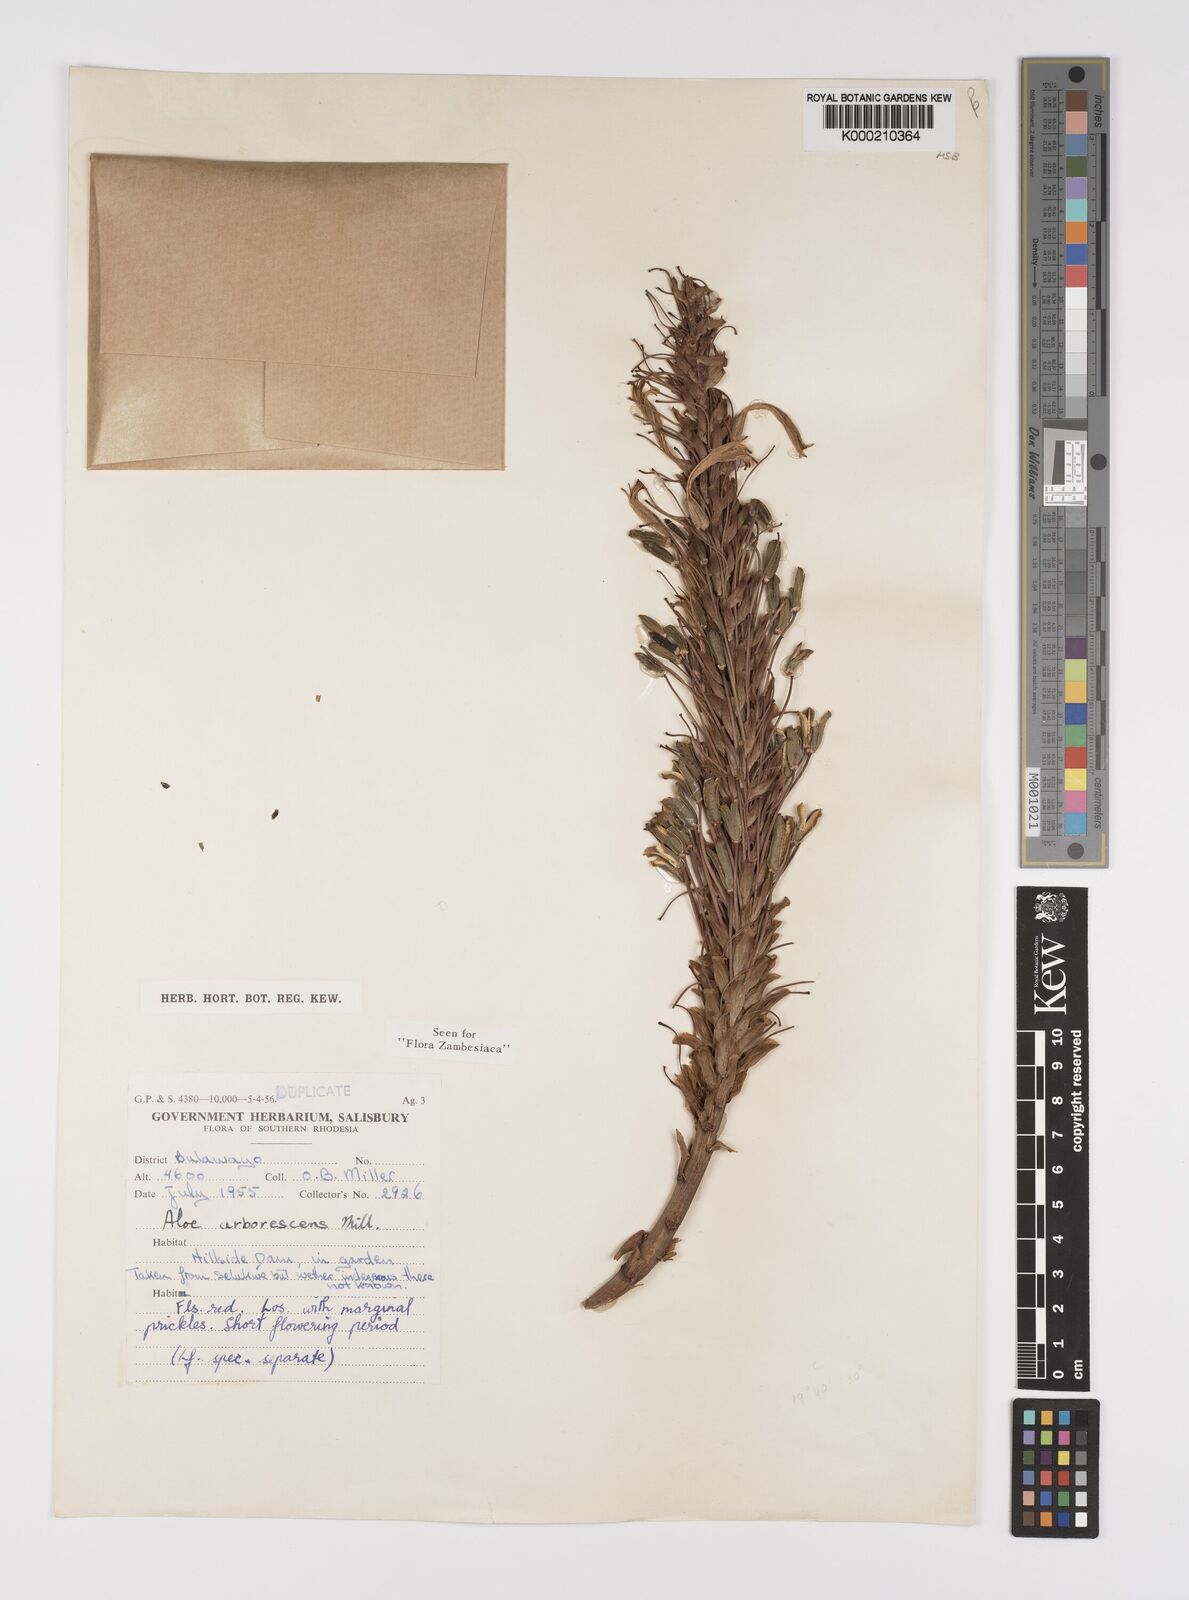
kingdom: Plantae
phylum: Tracheophyta
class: Liliopsida
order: Asparagales
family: Asphodelaceae
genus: Aloe
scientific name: Aloe arborescens
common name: Candelabra aloe
